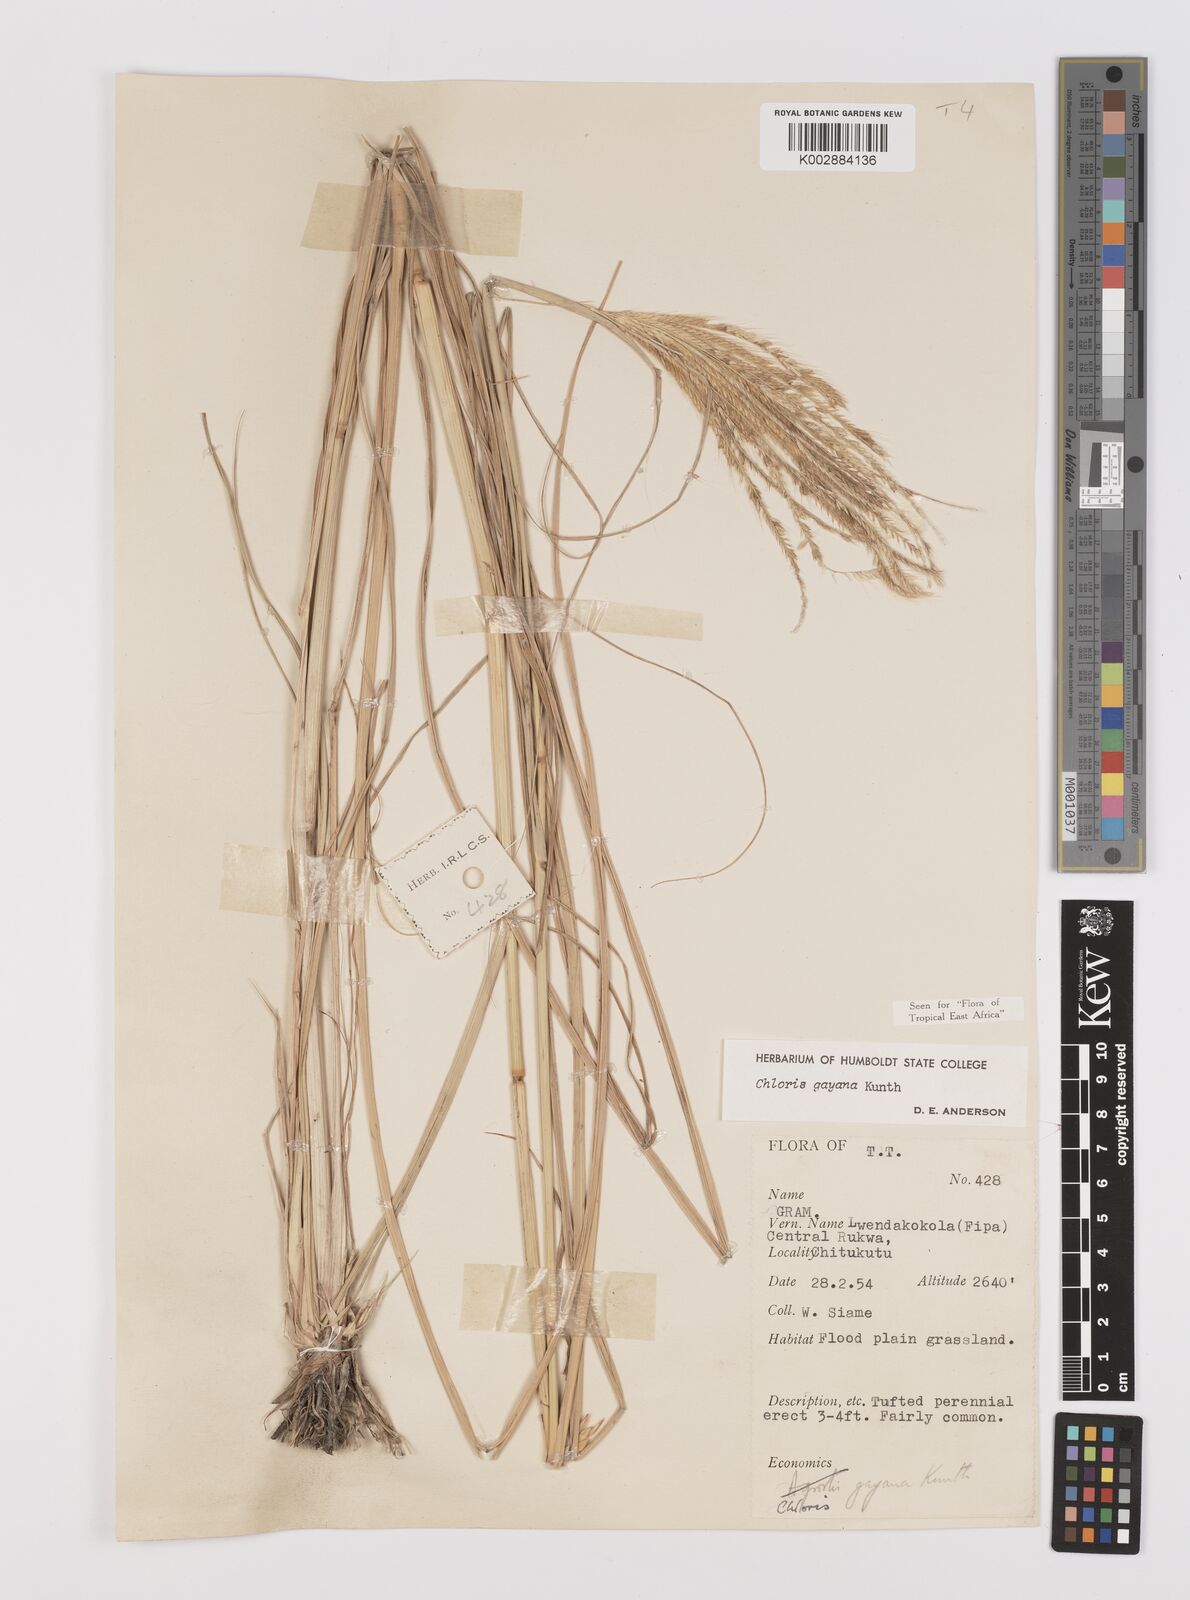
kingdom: Plantae
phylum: Tracheophyta
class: Liliopsida
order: Poales
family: Poaceae
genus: Chloris
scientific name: Chloris gayana
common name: Rhodes grass
